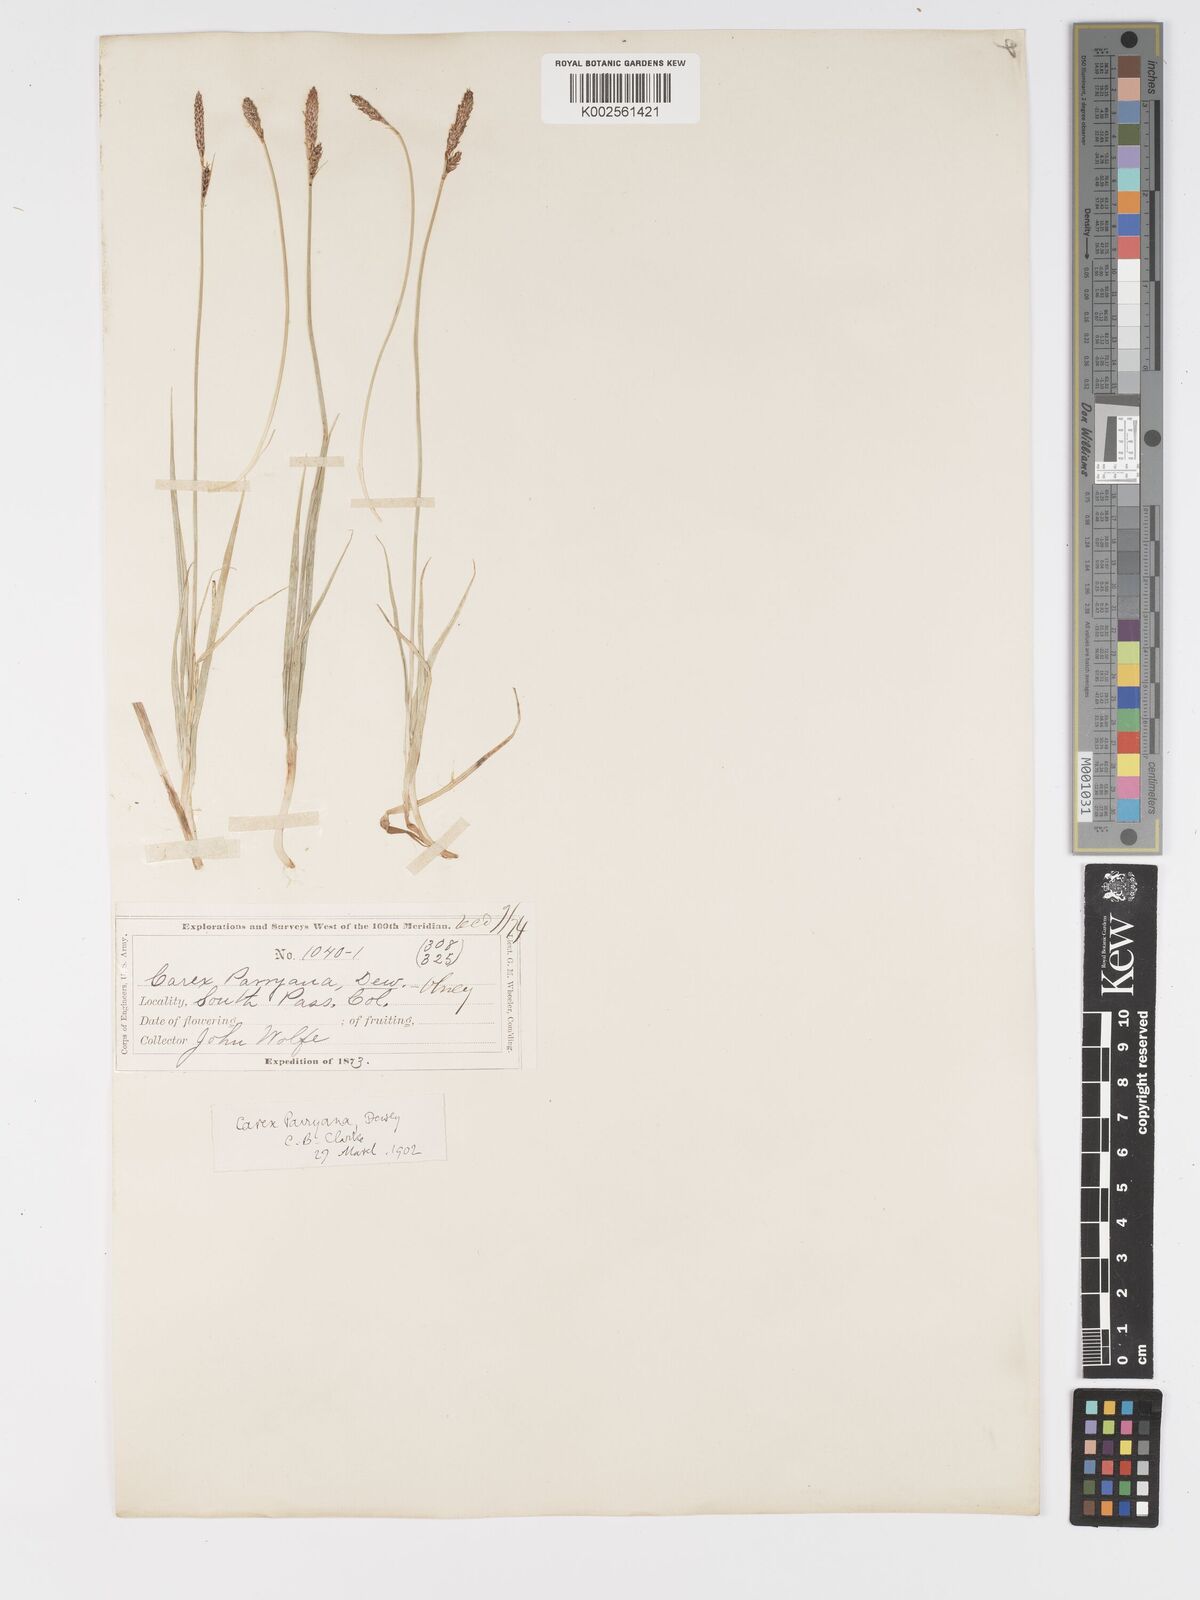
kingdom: Plantae
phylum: Tracheophyta
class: Liliopsida
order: Poales
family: Cyperaceae
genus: Carex
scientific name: Carex hallii
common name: Deer sedge
